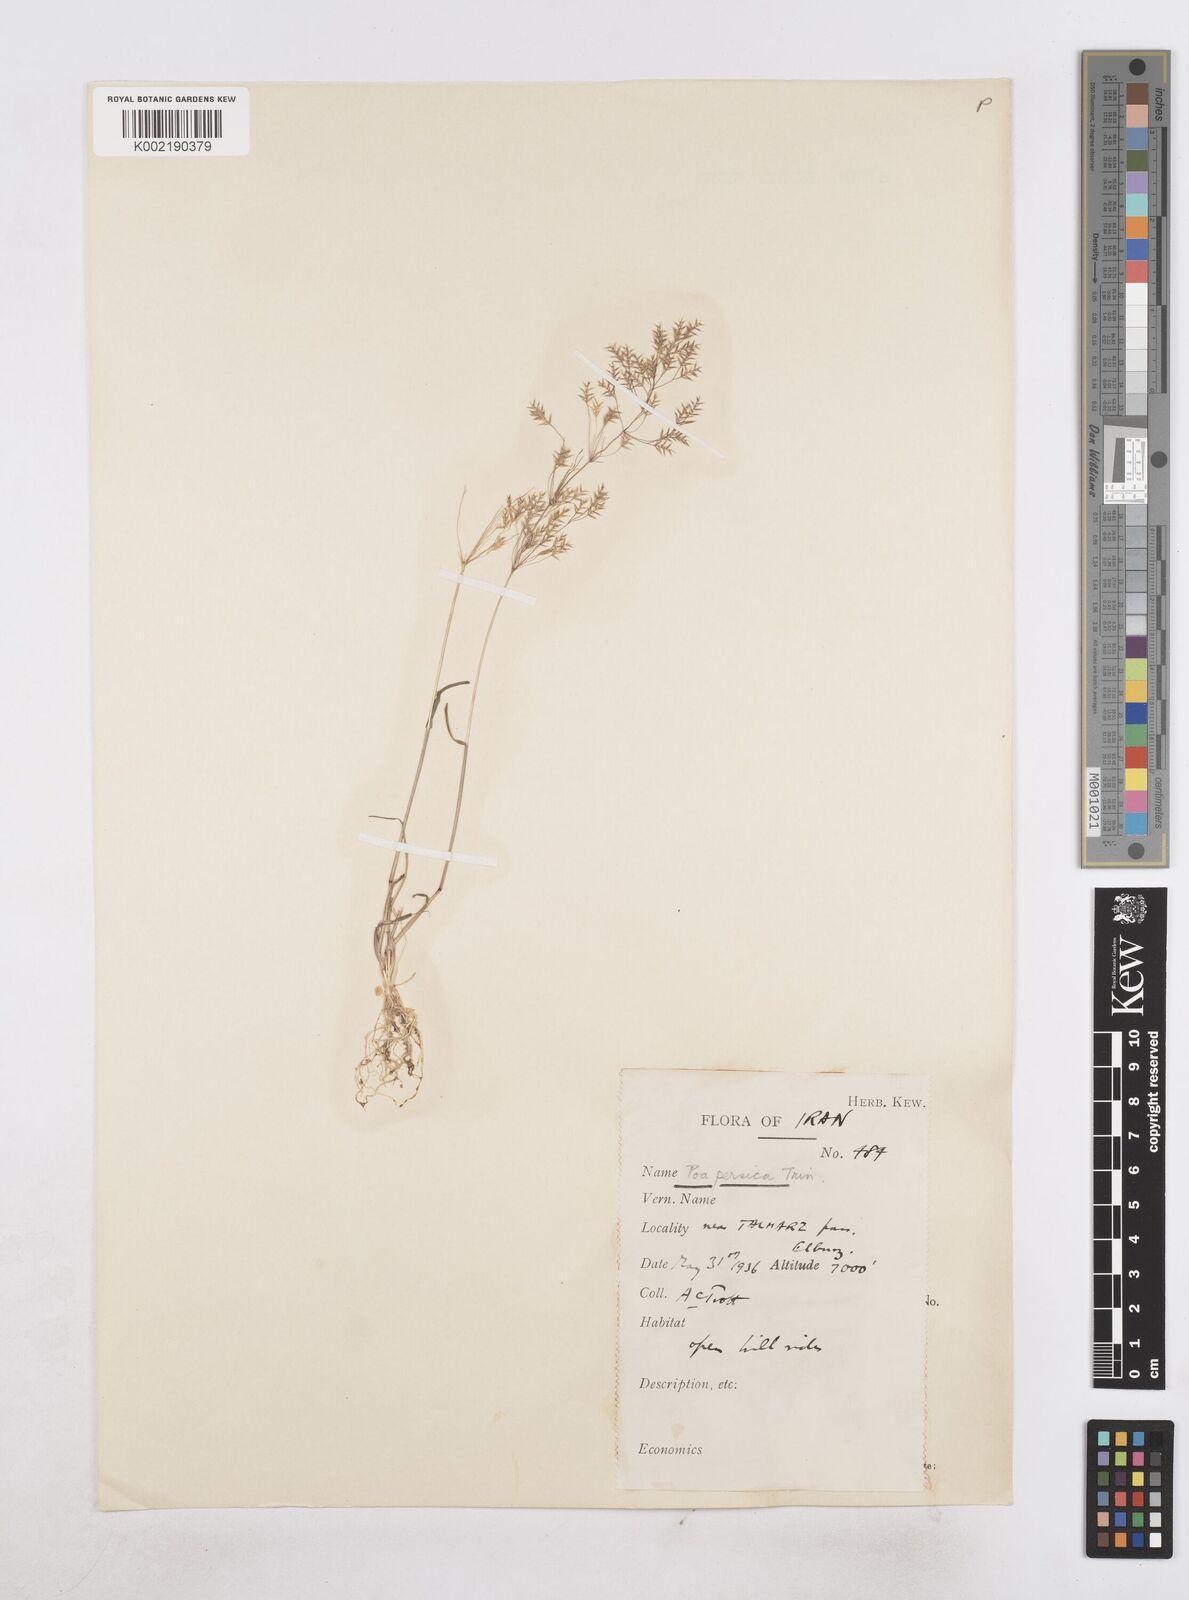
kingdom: Plantae
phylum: Tracheophyta
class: Liliopsida
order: Poales
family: Poaceae
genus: Poa
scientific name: Poa persica
